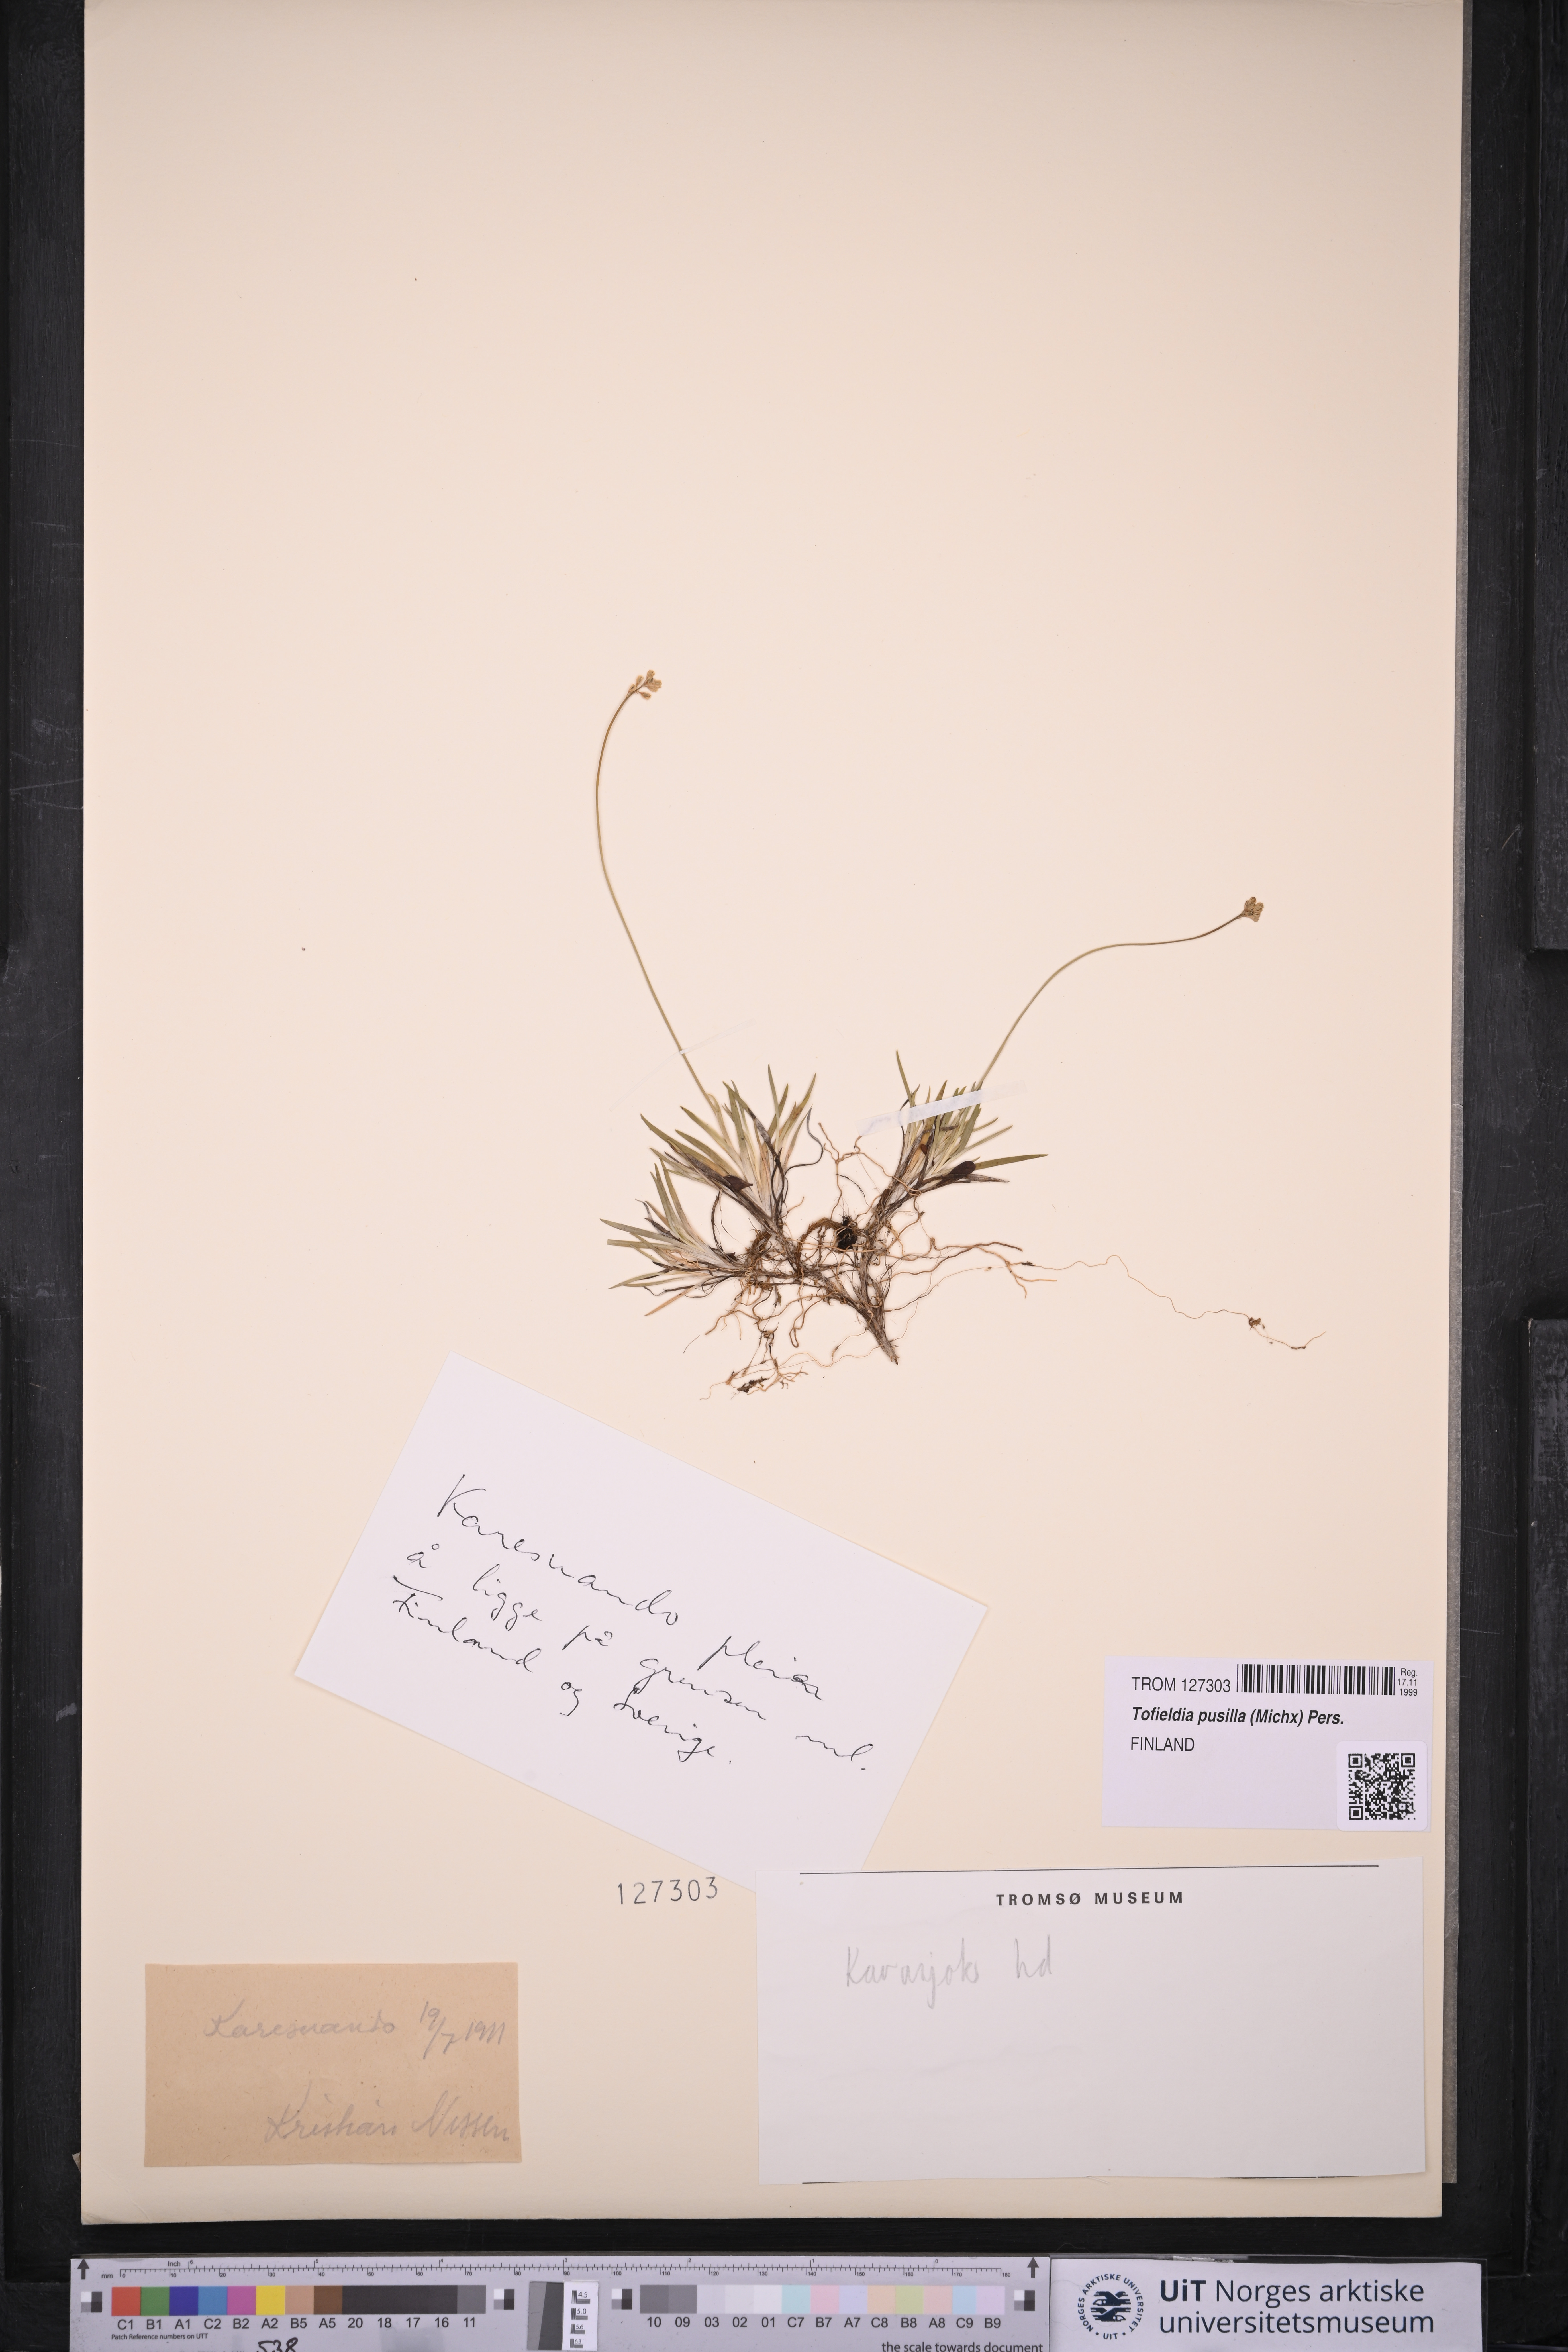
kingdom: Plantae
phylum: Tracheophyta
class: Liliopsida
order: Alismatales
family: Tofieldiaceae
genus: Tofieldia
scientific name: Tofieldia pusilla
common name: Scottish false asphodel
